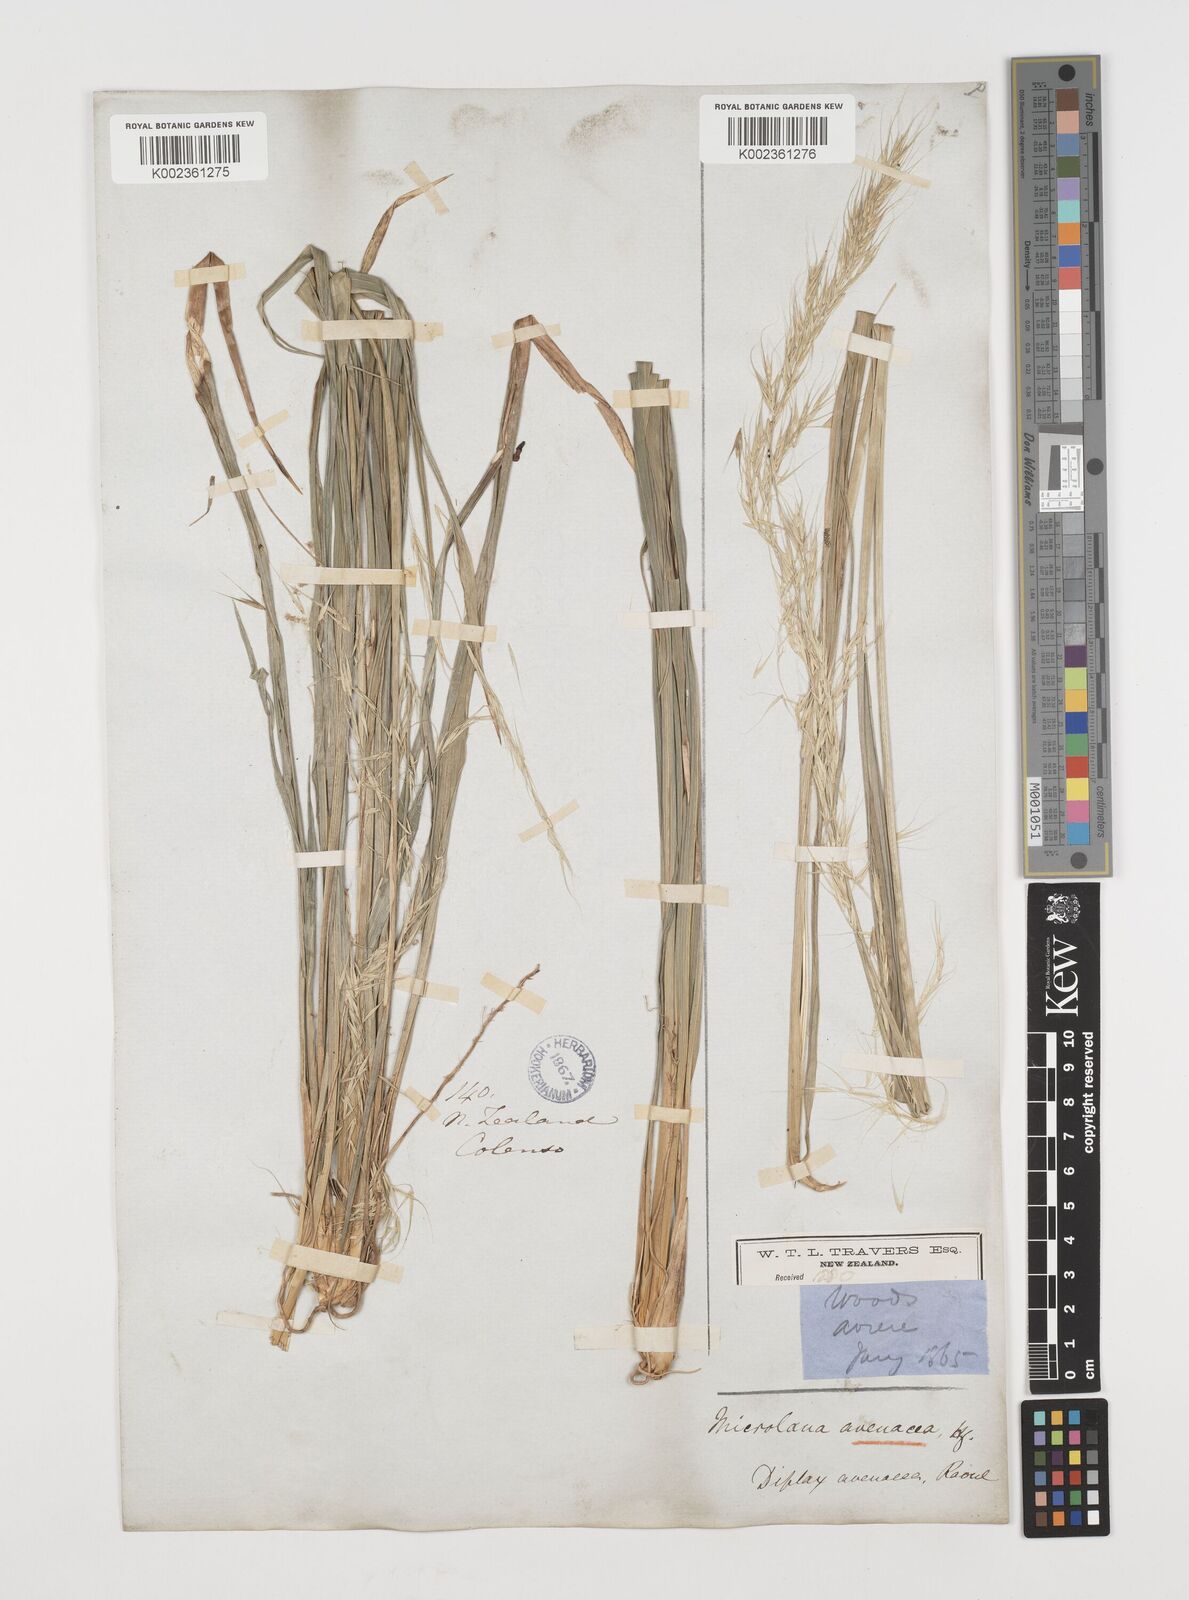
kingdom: Plantae
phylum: Tracheophyta
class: Liliopsida
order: Poales
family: Poaceae
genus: Ehrharta
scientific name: Ehrharta diplax
